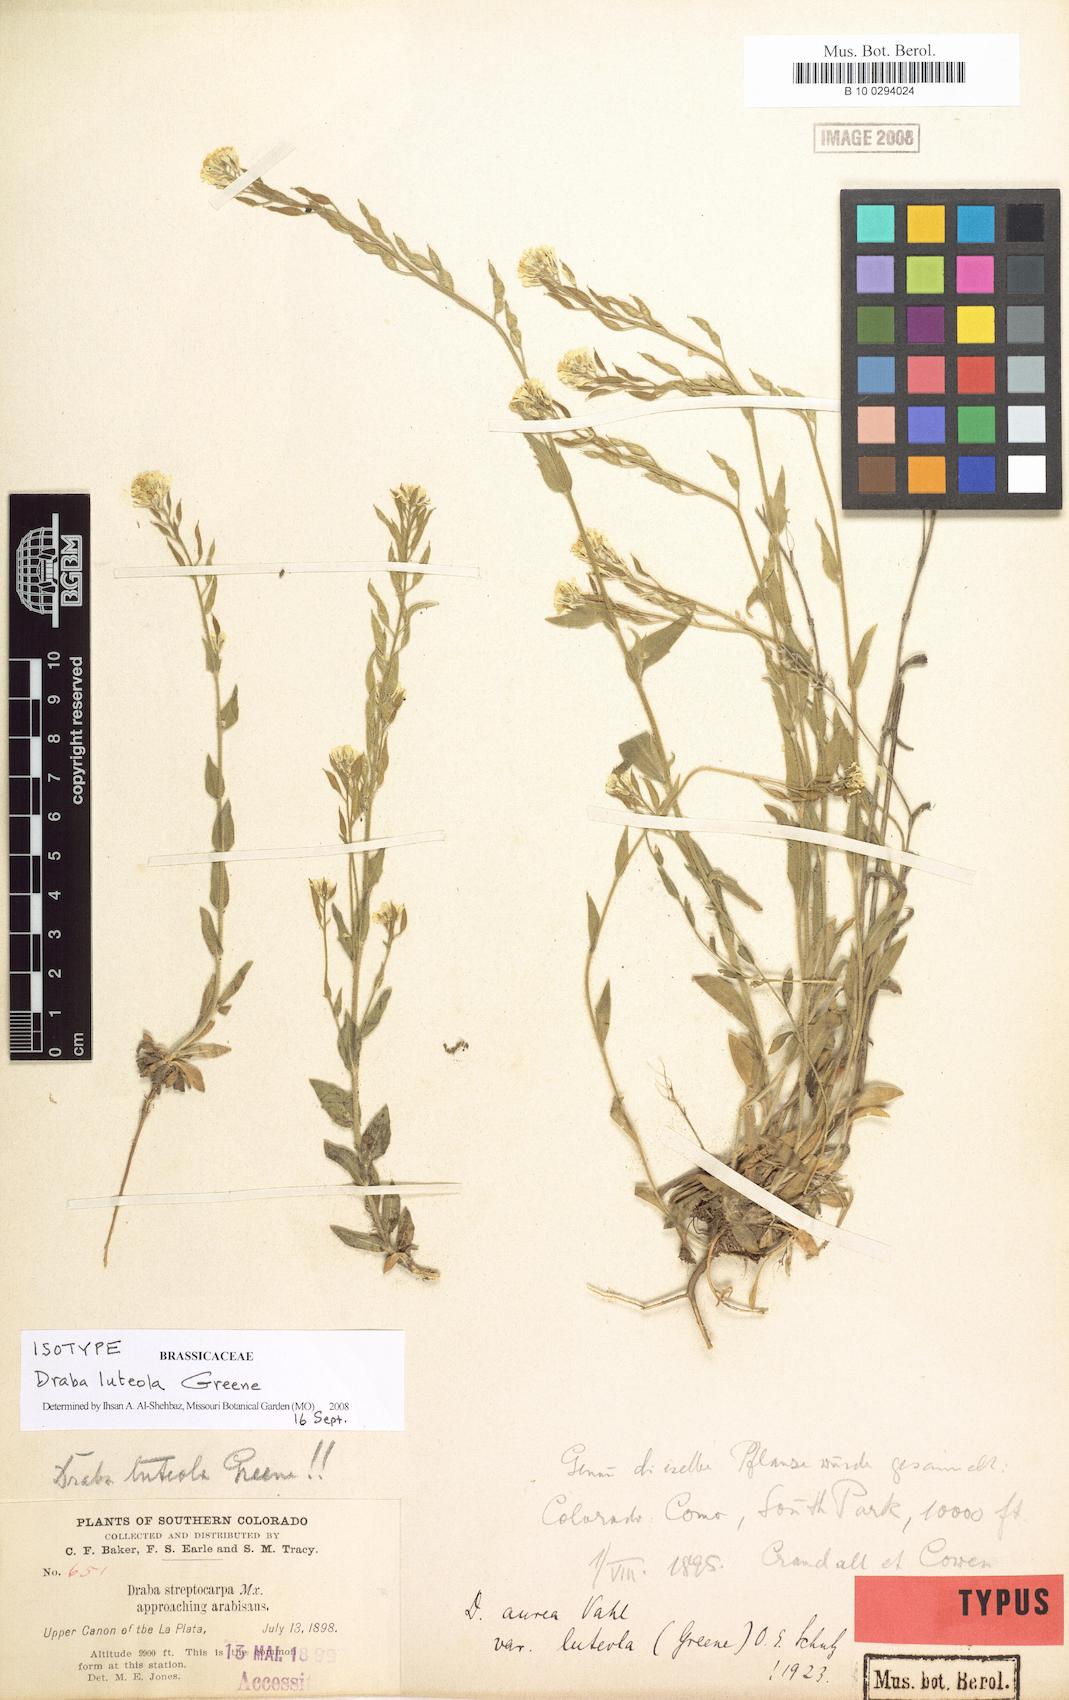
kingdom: Plantae
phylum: Tracheophyta
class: Magnoliopsida
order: Brassicales
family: Brassicaceae
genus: Draba
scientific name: Draba aurea
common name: Golden draba
